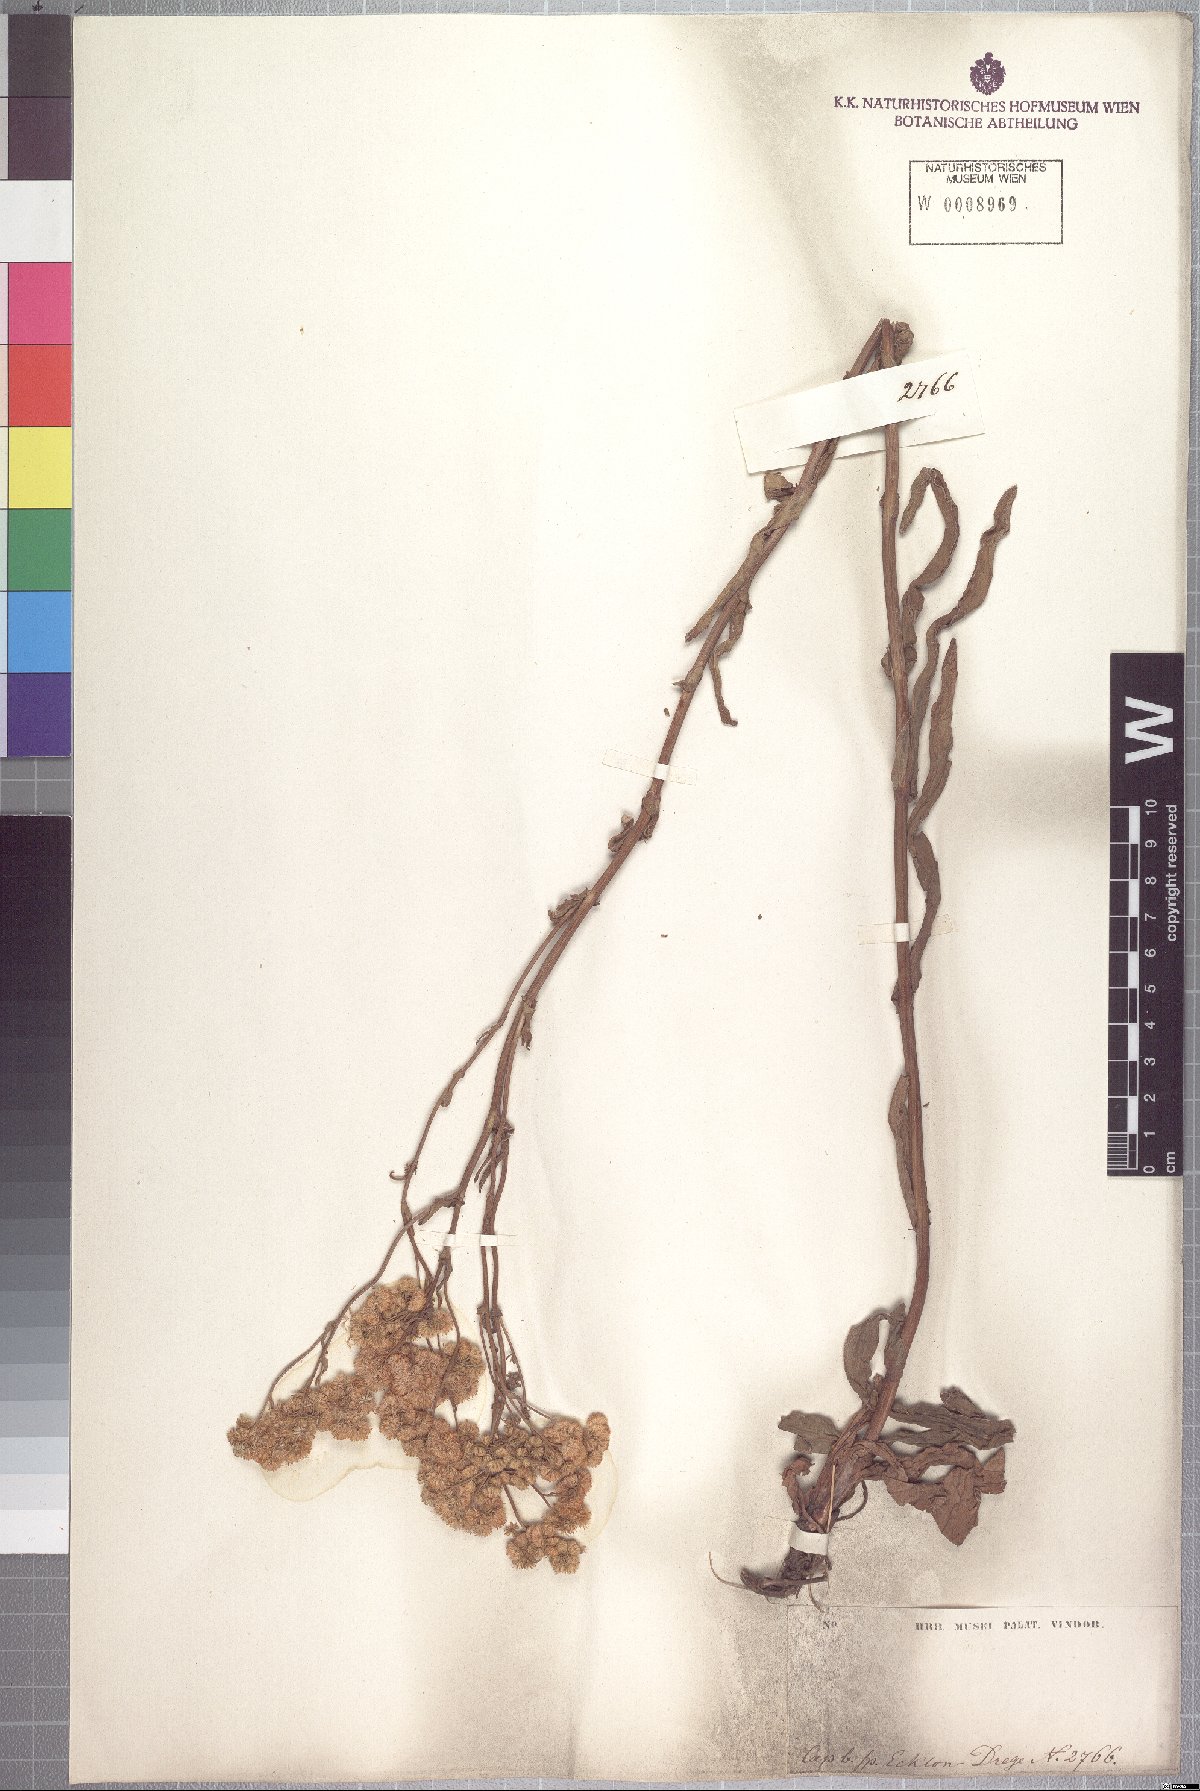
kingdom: Plantae
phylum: Tracheophyta
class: Magnoliopsida
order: Asterales
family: Asteraceae
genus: Nidorella
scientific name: Nidorella undulata
